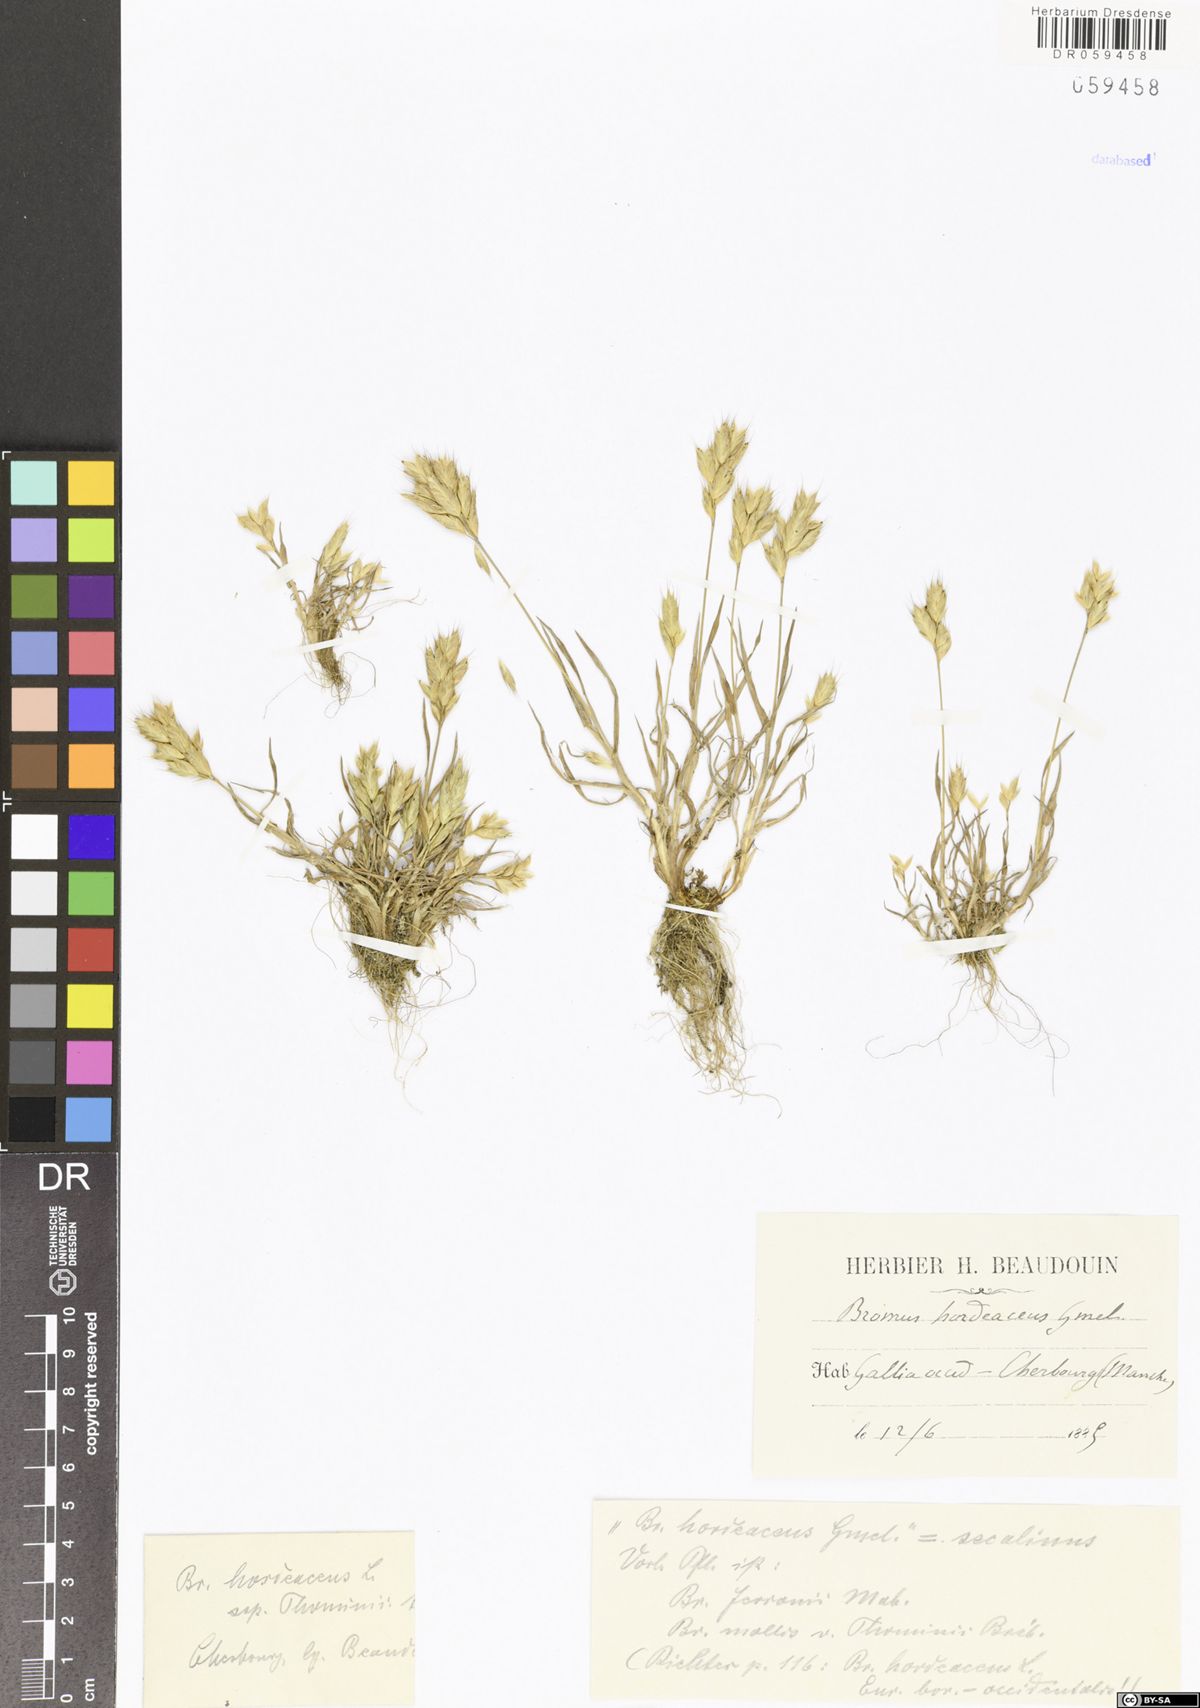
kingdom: Plantae
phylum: Tracheophyta
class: Liliopsida
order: Poales
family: Poaceae
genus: Bromus
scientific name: Bromus hordeaceus
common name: Soft brome
